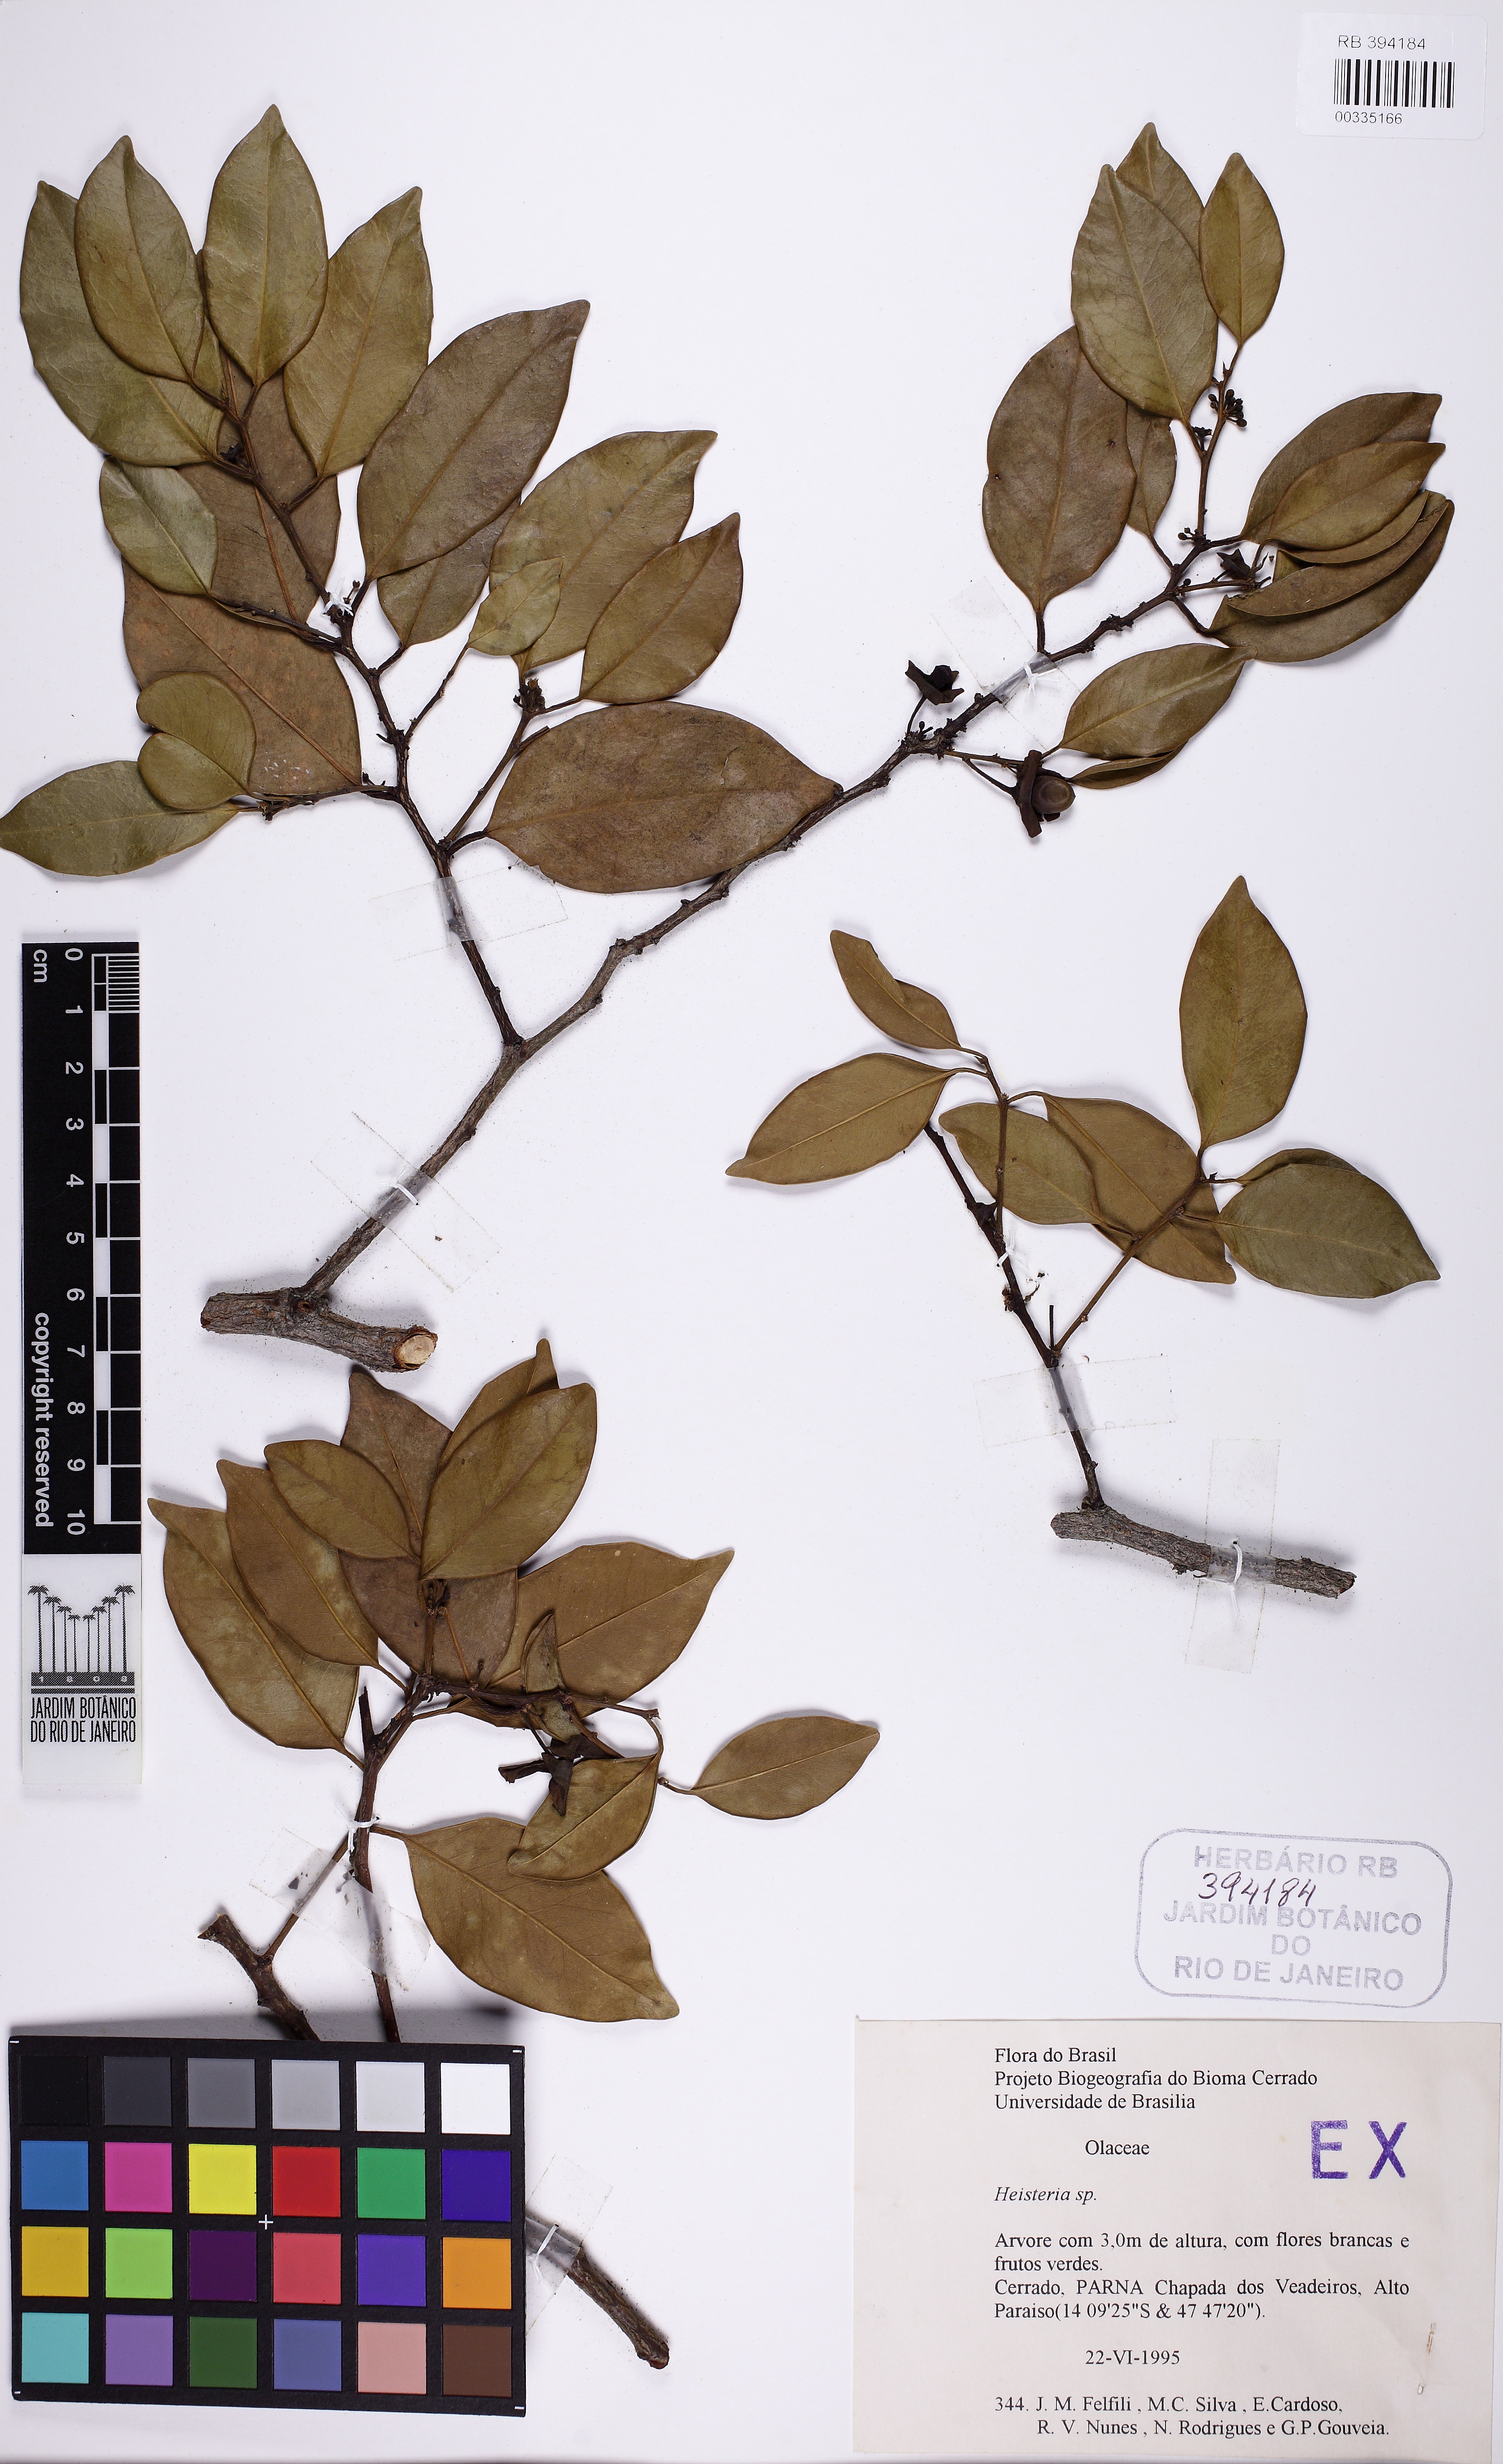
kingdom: Plantae
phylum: Tracheophyta
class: Magnoliopsida
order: Santalales
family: Erythropalaceae
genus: Heisteria
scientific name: Heisteria
